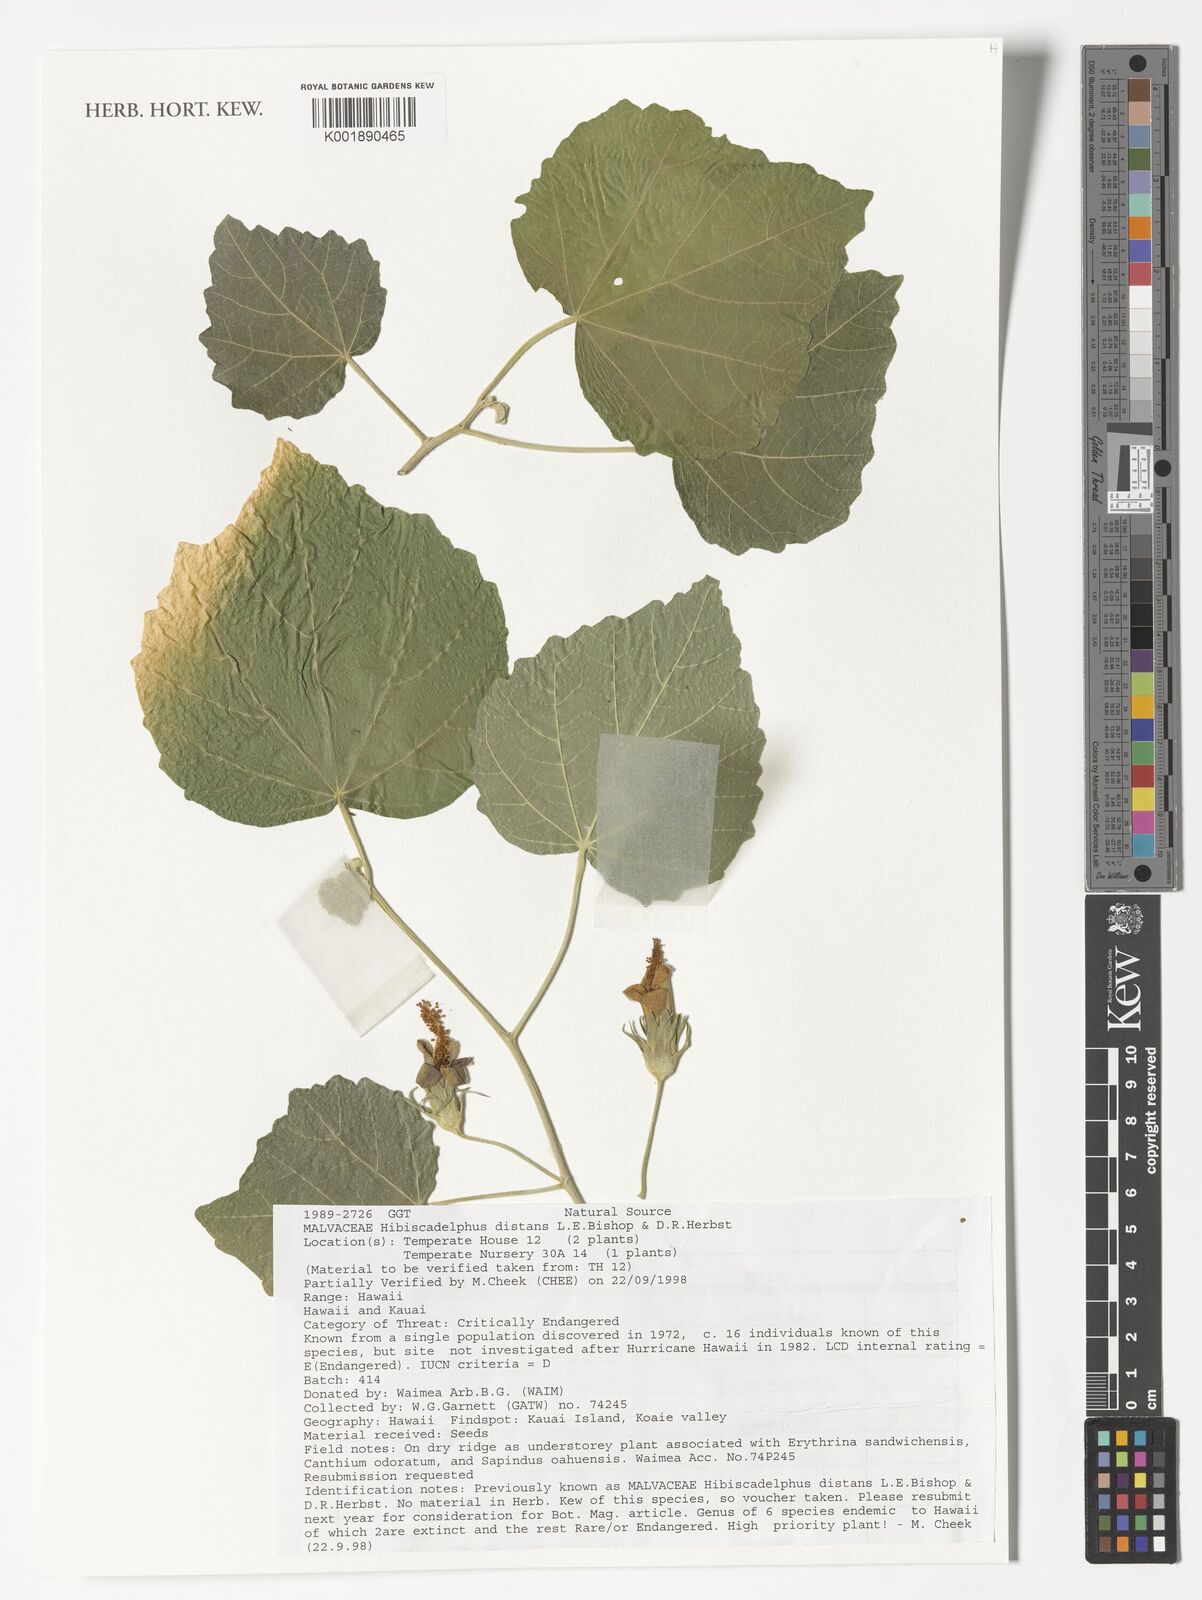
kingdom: Plantae
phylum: Tracheophyta
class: Magnoliopsida
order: Malvales
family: Malvaceae
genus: Hibiscadelphus
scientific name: Hibiscadelphus distans
